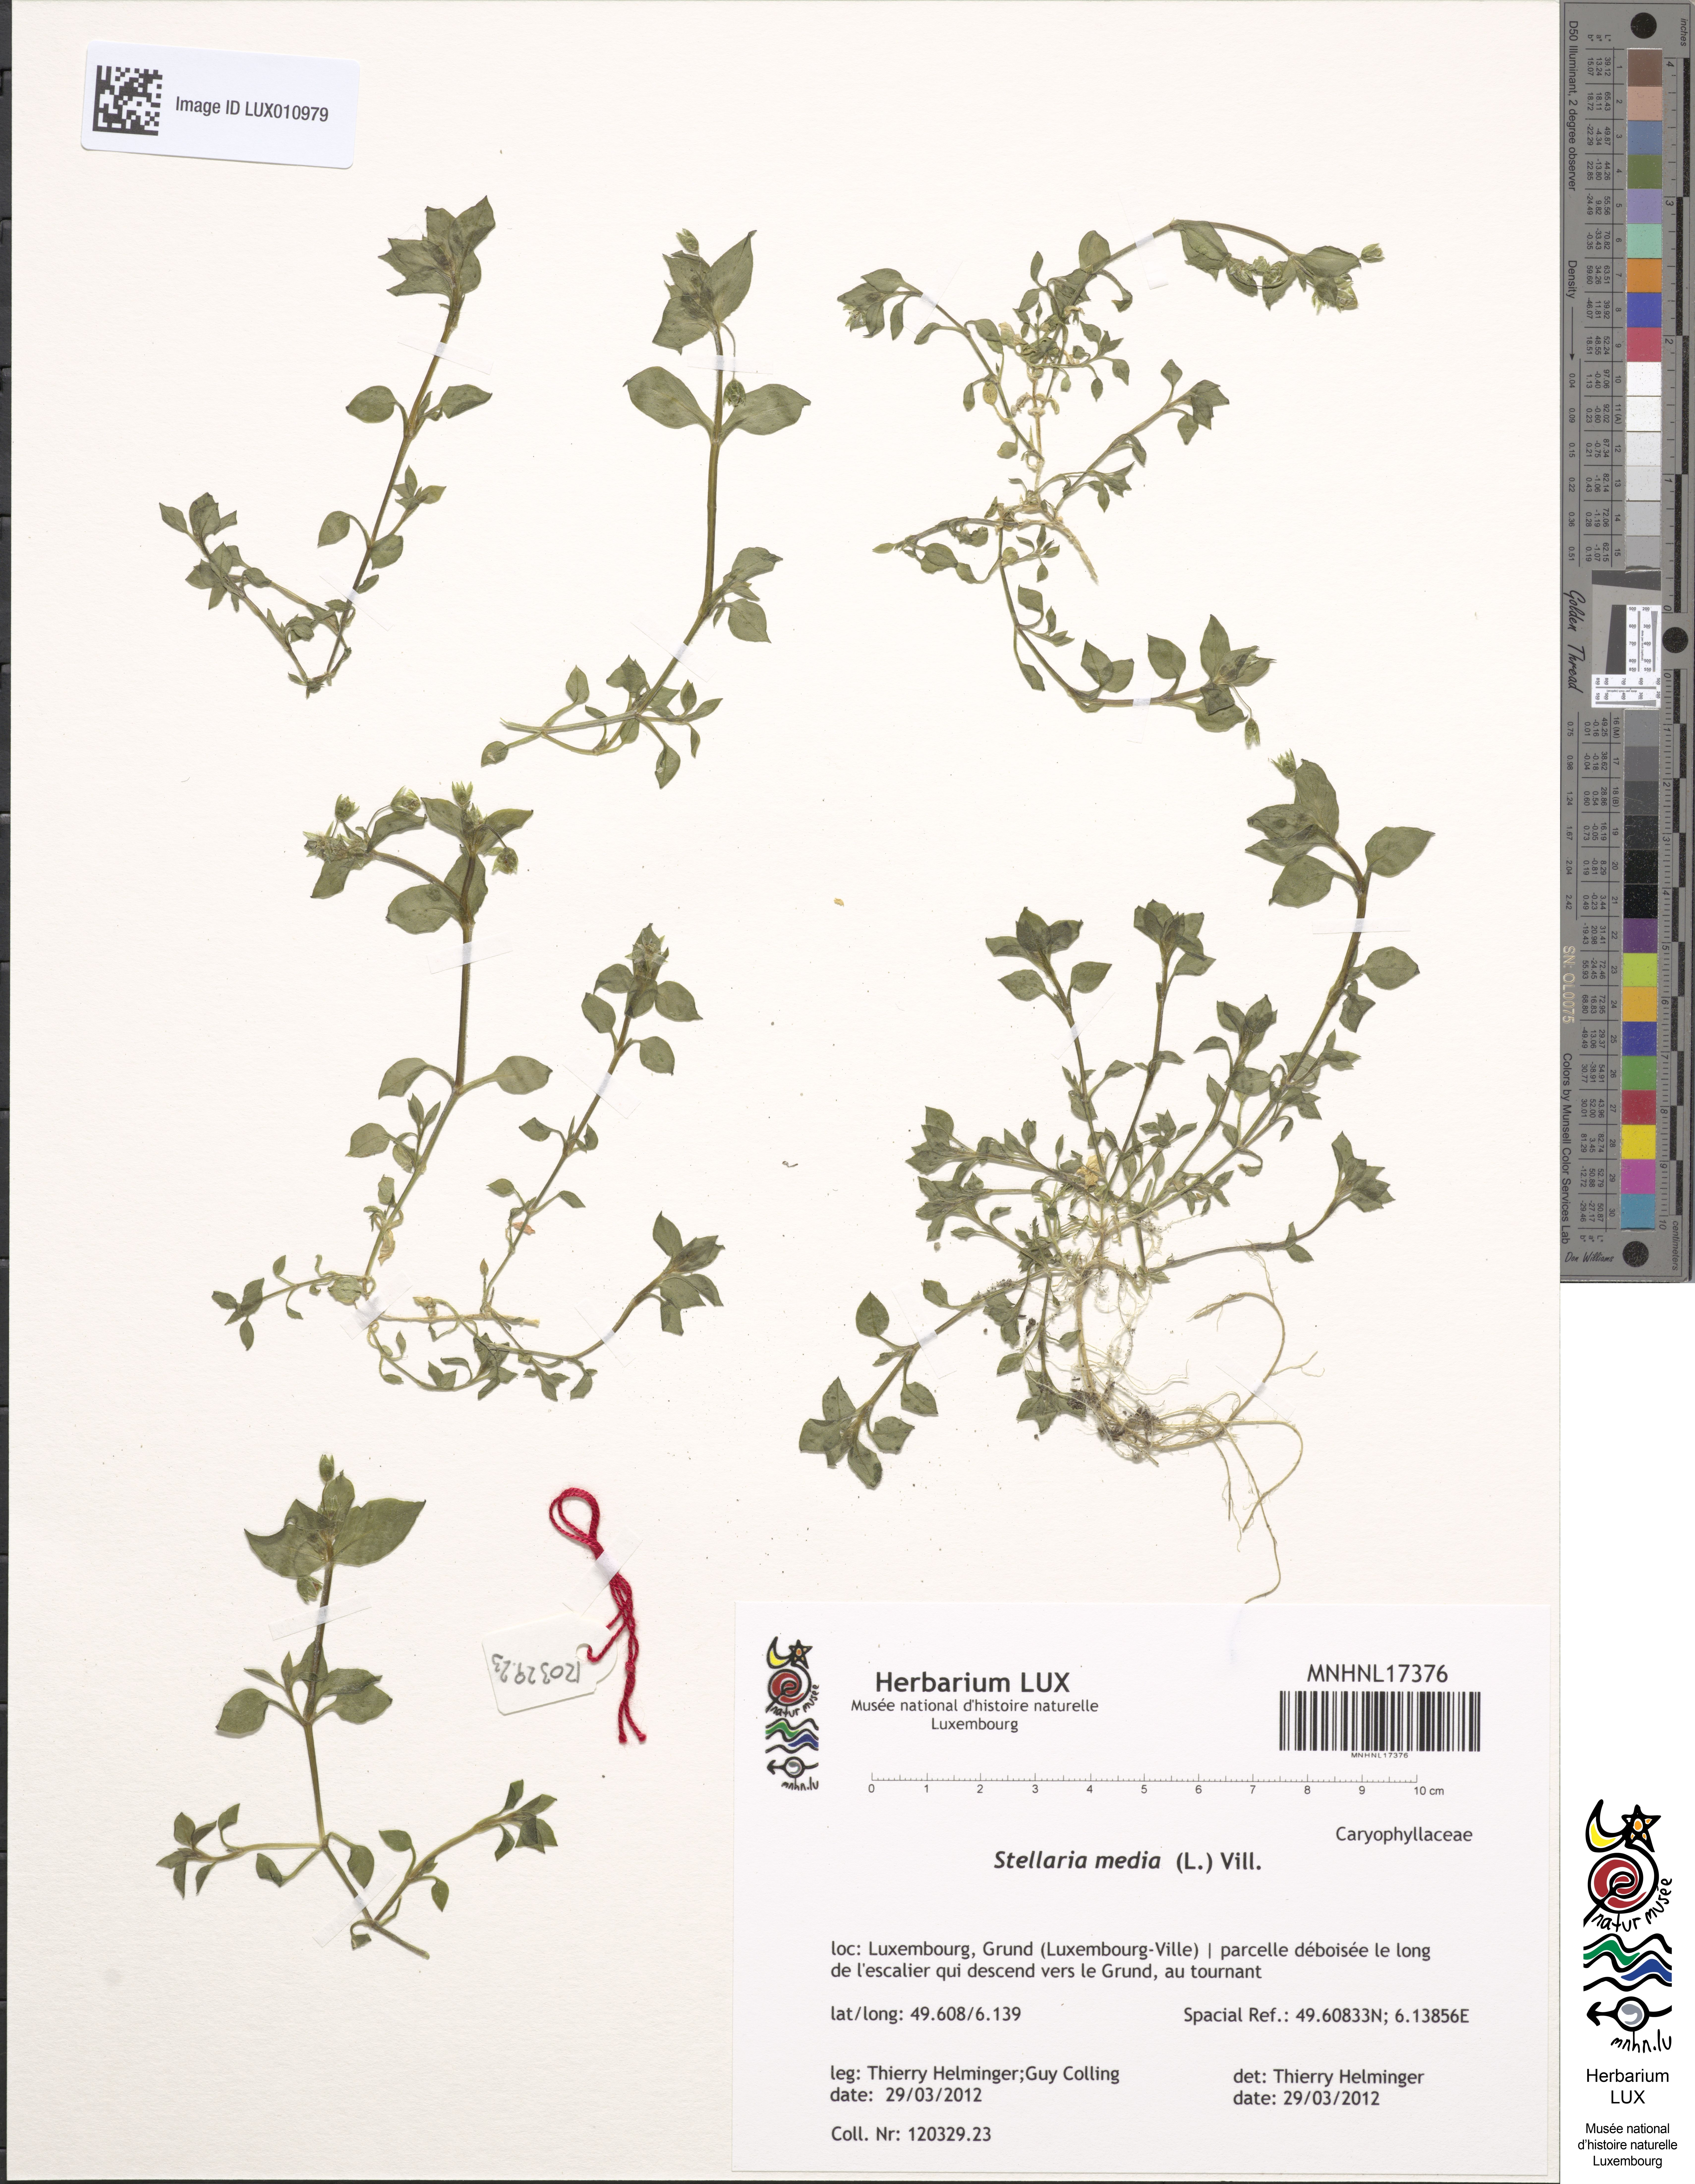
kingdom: Plantae
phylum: Tracheophyta
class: Magnoliopsida
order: Caryophyllales
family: Caryophyllaceae
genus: Stellaria
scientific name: Stellaria media
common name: Common chickweed
